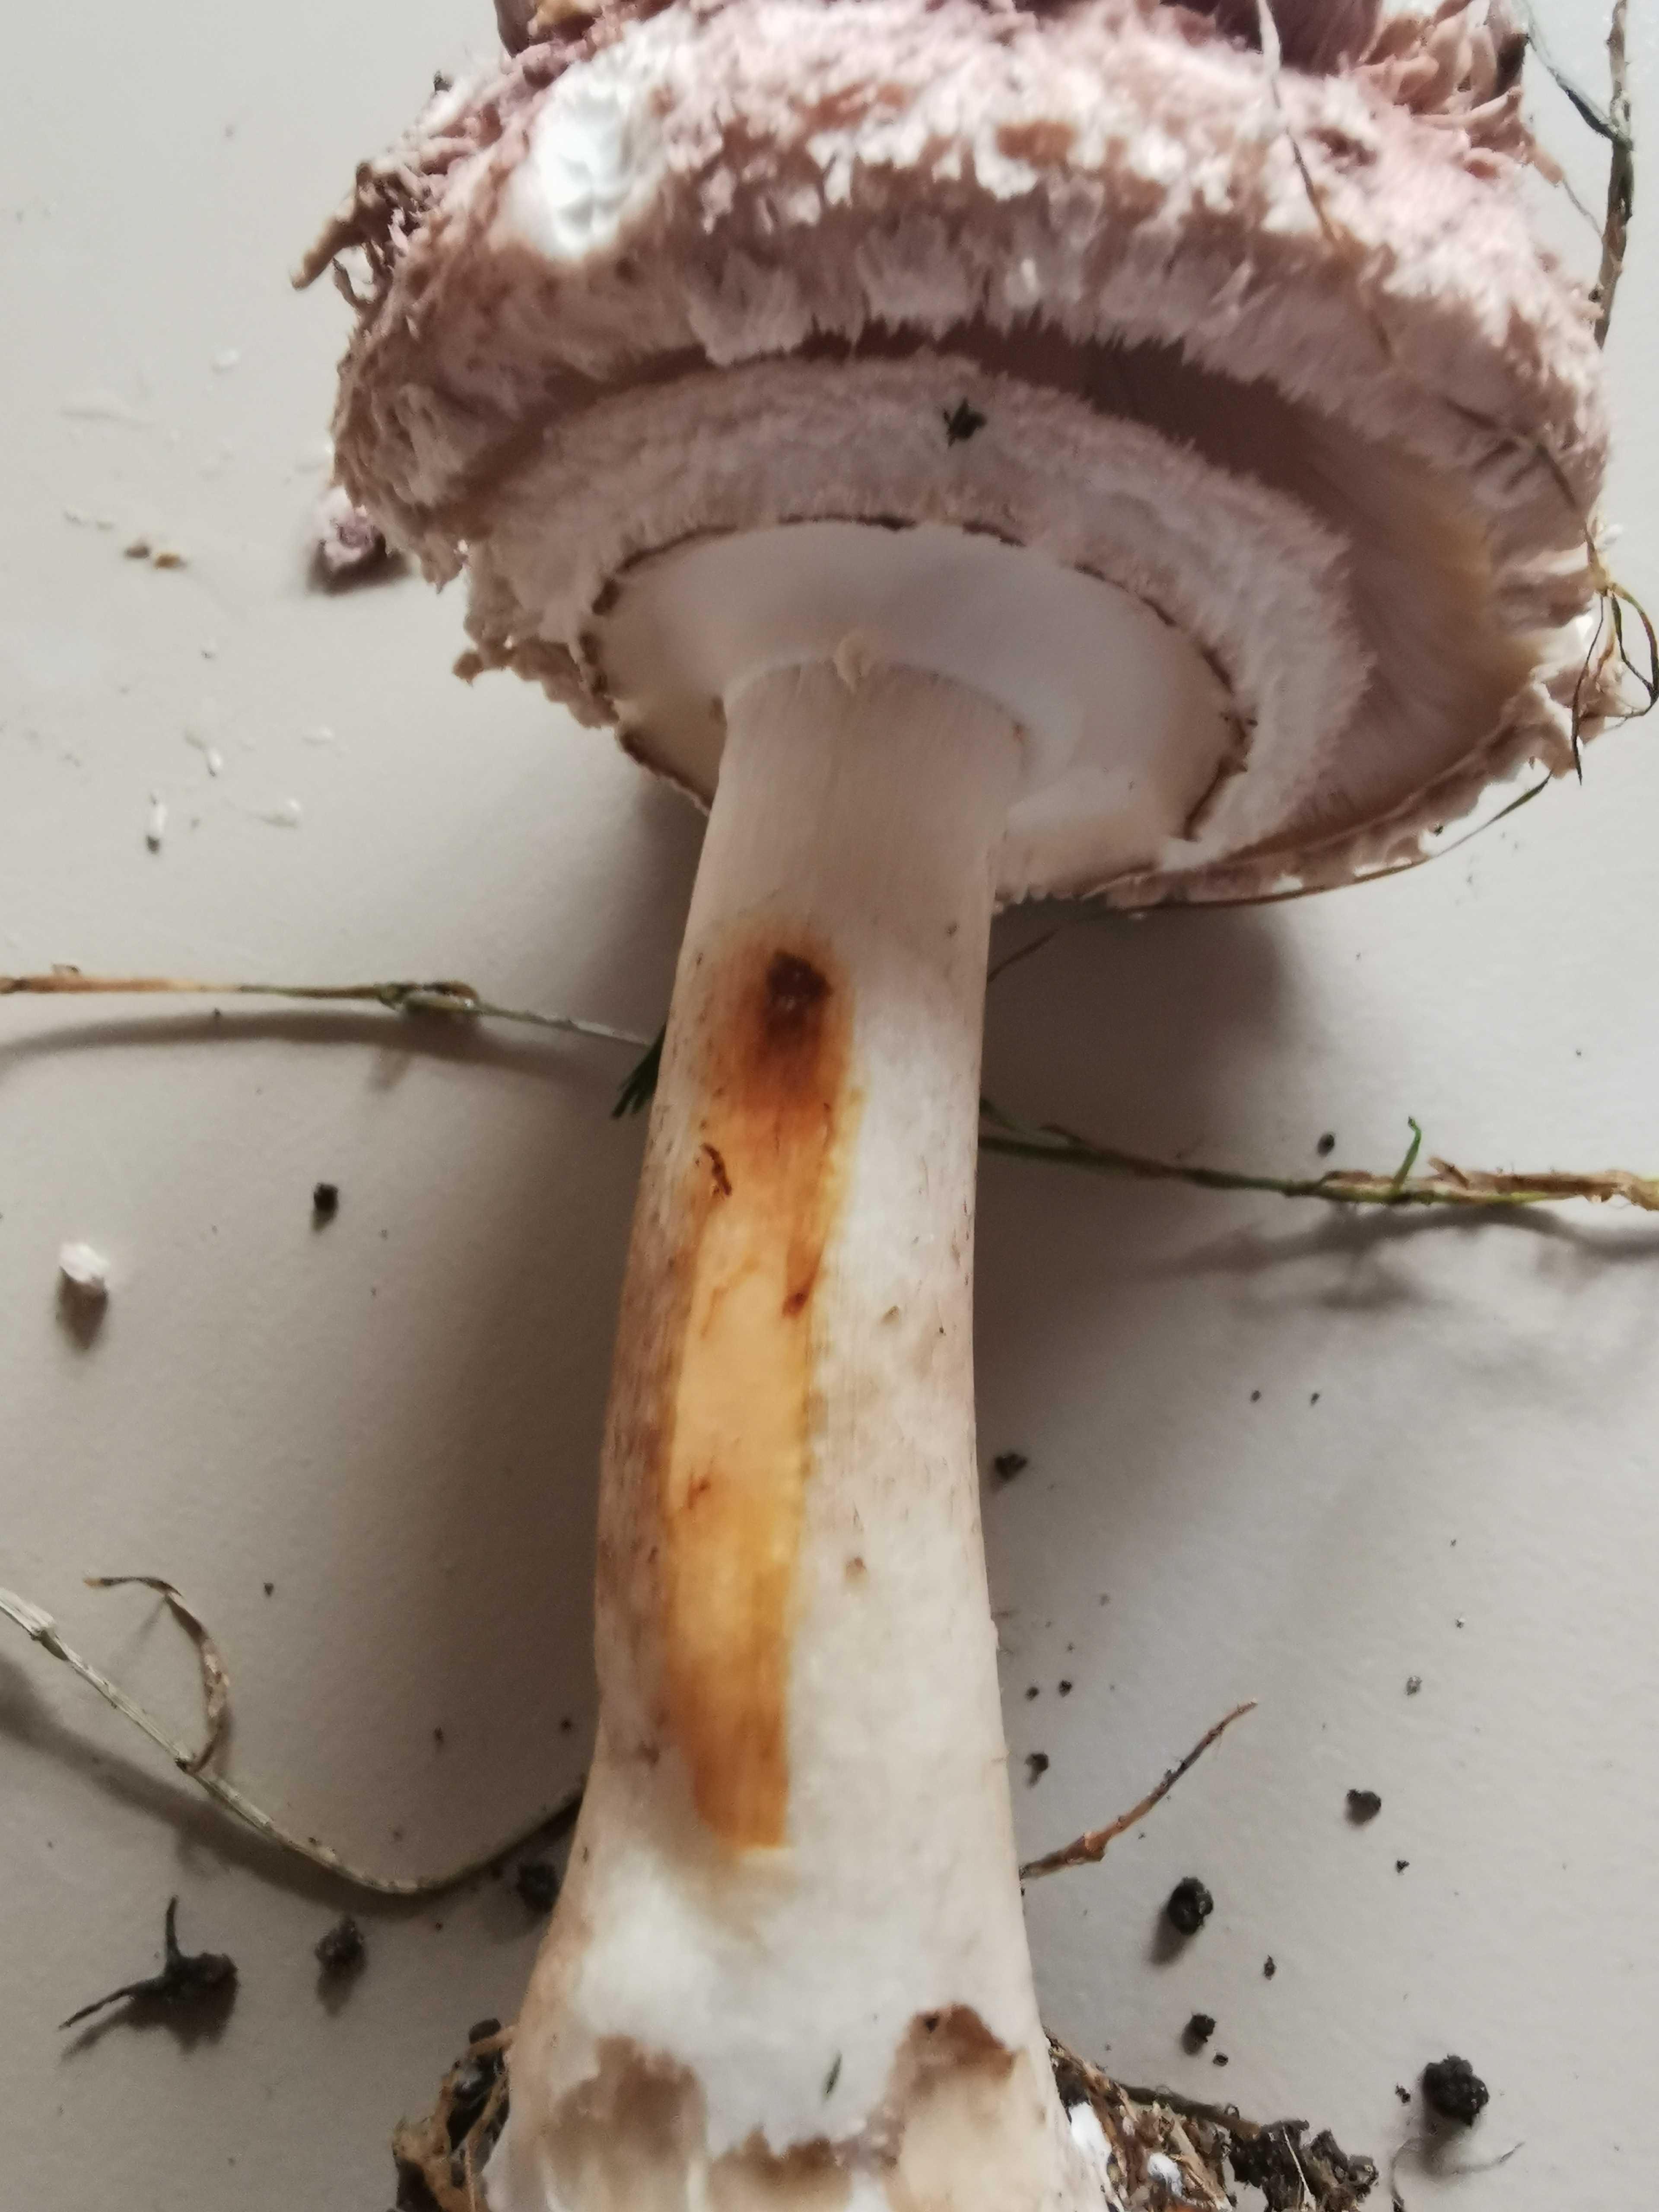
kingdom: Fungi
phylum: Basidiomycota
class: Agaricomycetes
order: Agaricales
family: Agaricaceae
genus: Chlorophyllum
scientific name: Chlorophyllum olivieri
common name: almindelig rabarberhat
